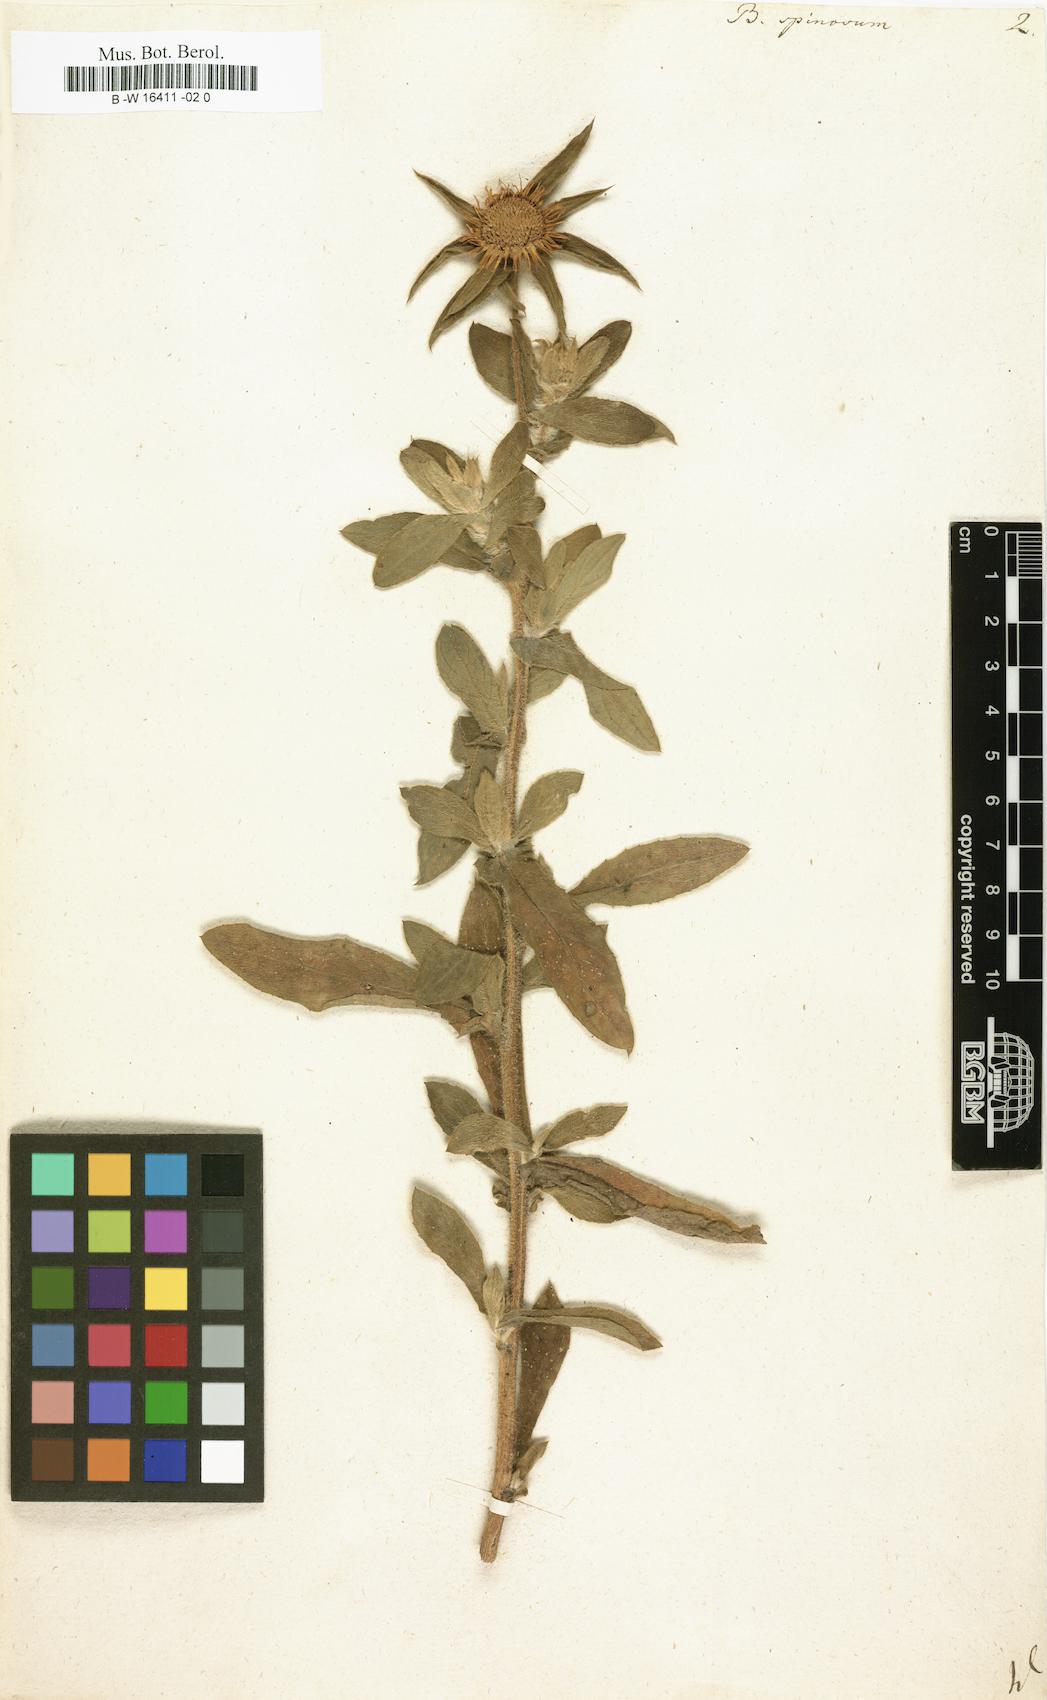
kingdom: Plantae
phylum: Tracheophyta
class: Magnoliopsida
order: Asterales
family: Asteraceae
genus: Pallenis
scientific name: Pallenis spinosa
